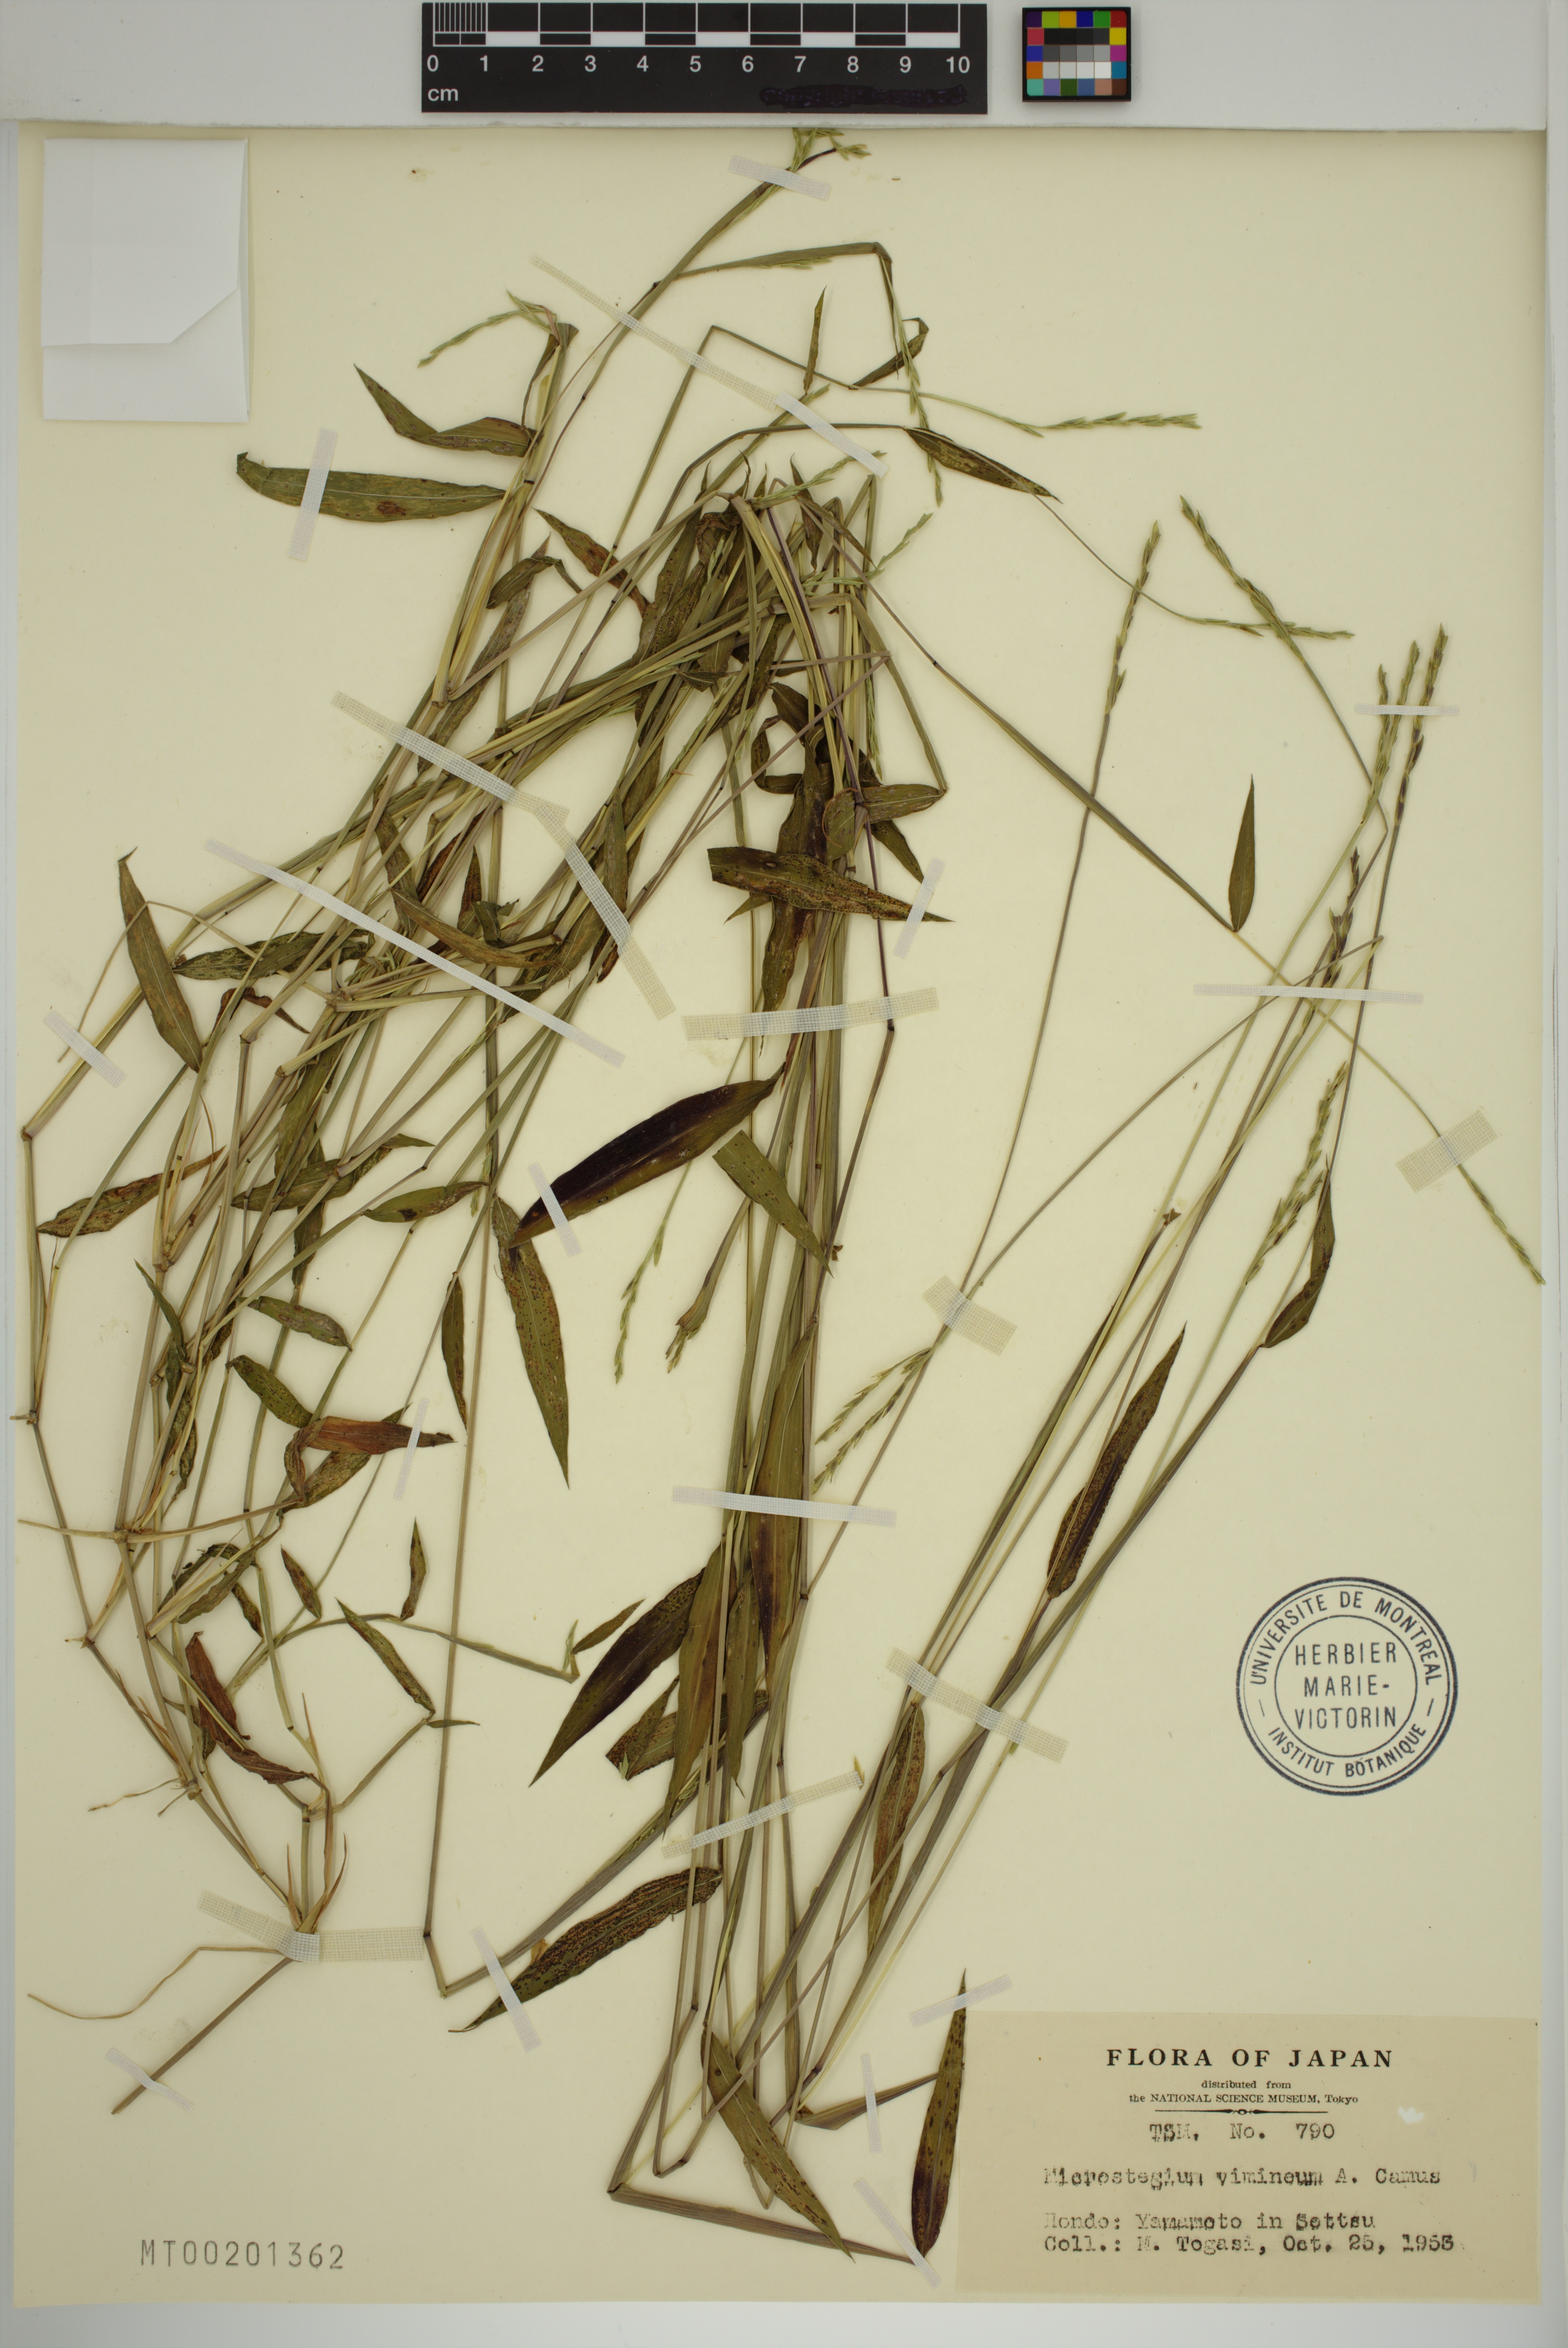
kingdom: Plantae
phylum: Tracheophyta
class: Liliopsida
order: Poales
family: Poaceae
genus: Microstegium
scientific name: Microstegium vimineum
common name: Japanese stiltgrass
